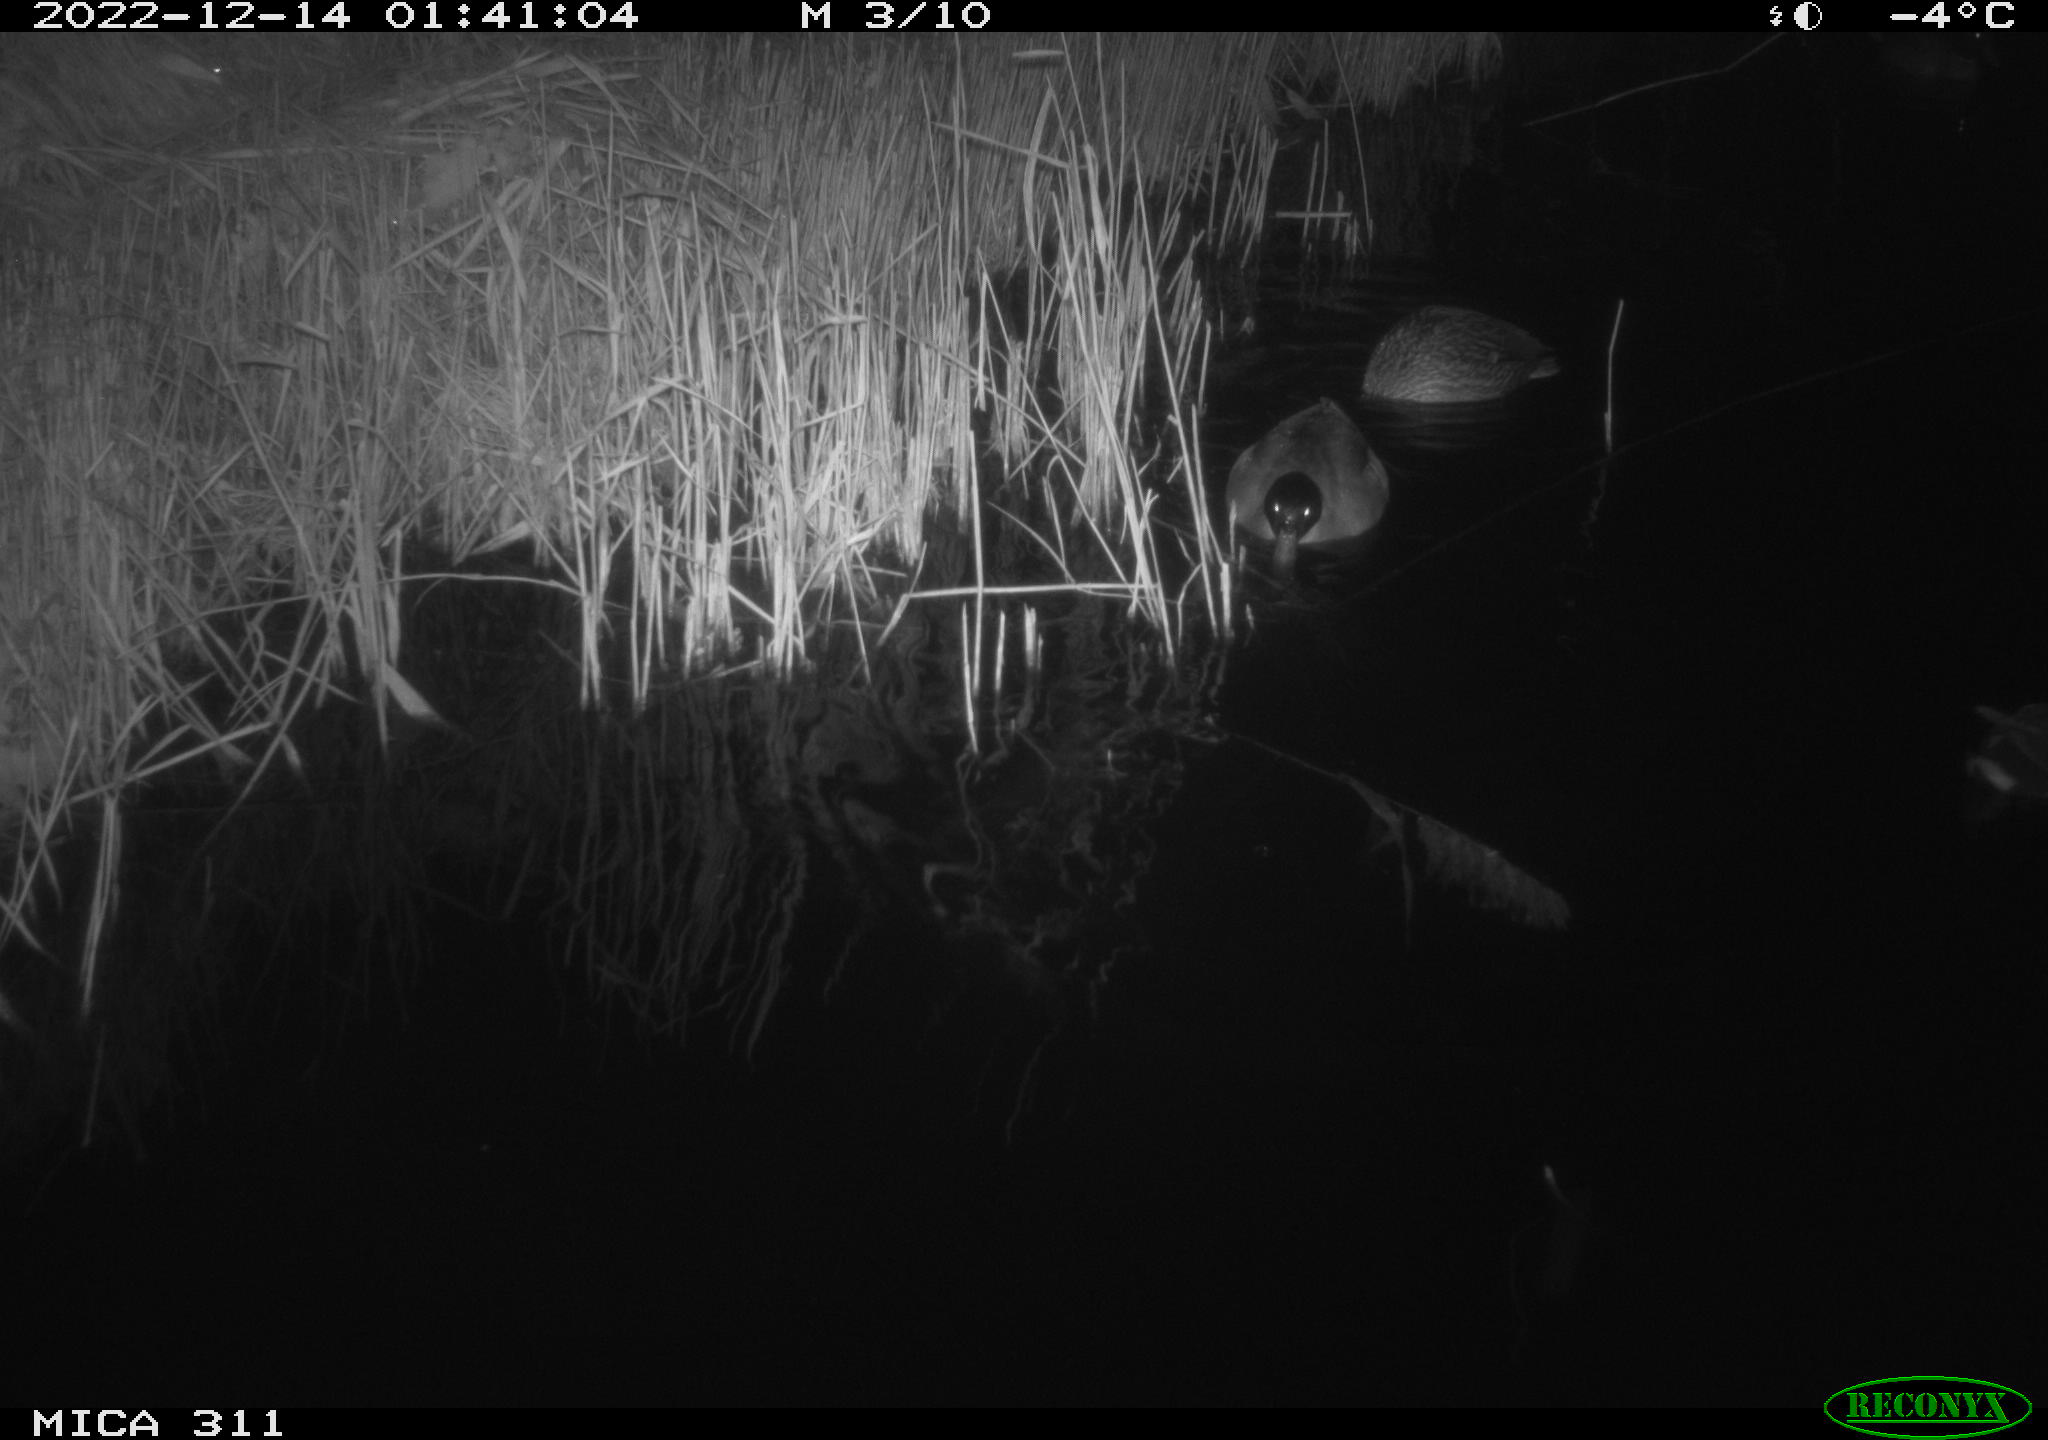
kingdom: Animalia
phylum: Chordata
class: Aves
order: Gruiformes
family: Rallidae
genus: Gallinula
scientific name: Gallinula chloropus
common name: Common moorhen
